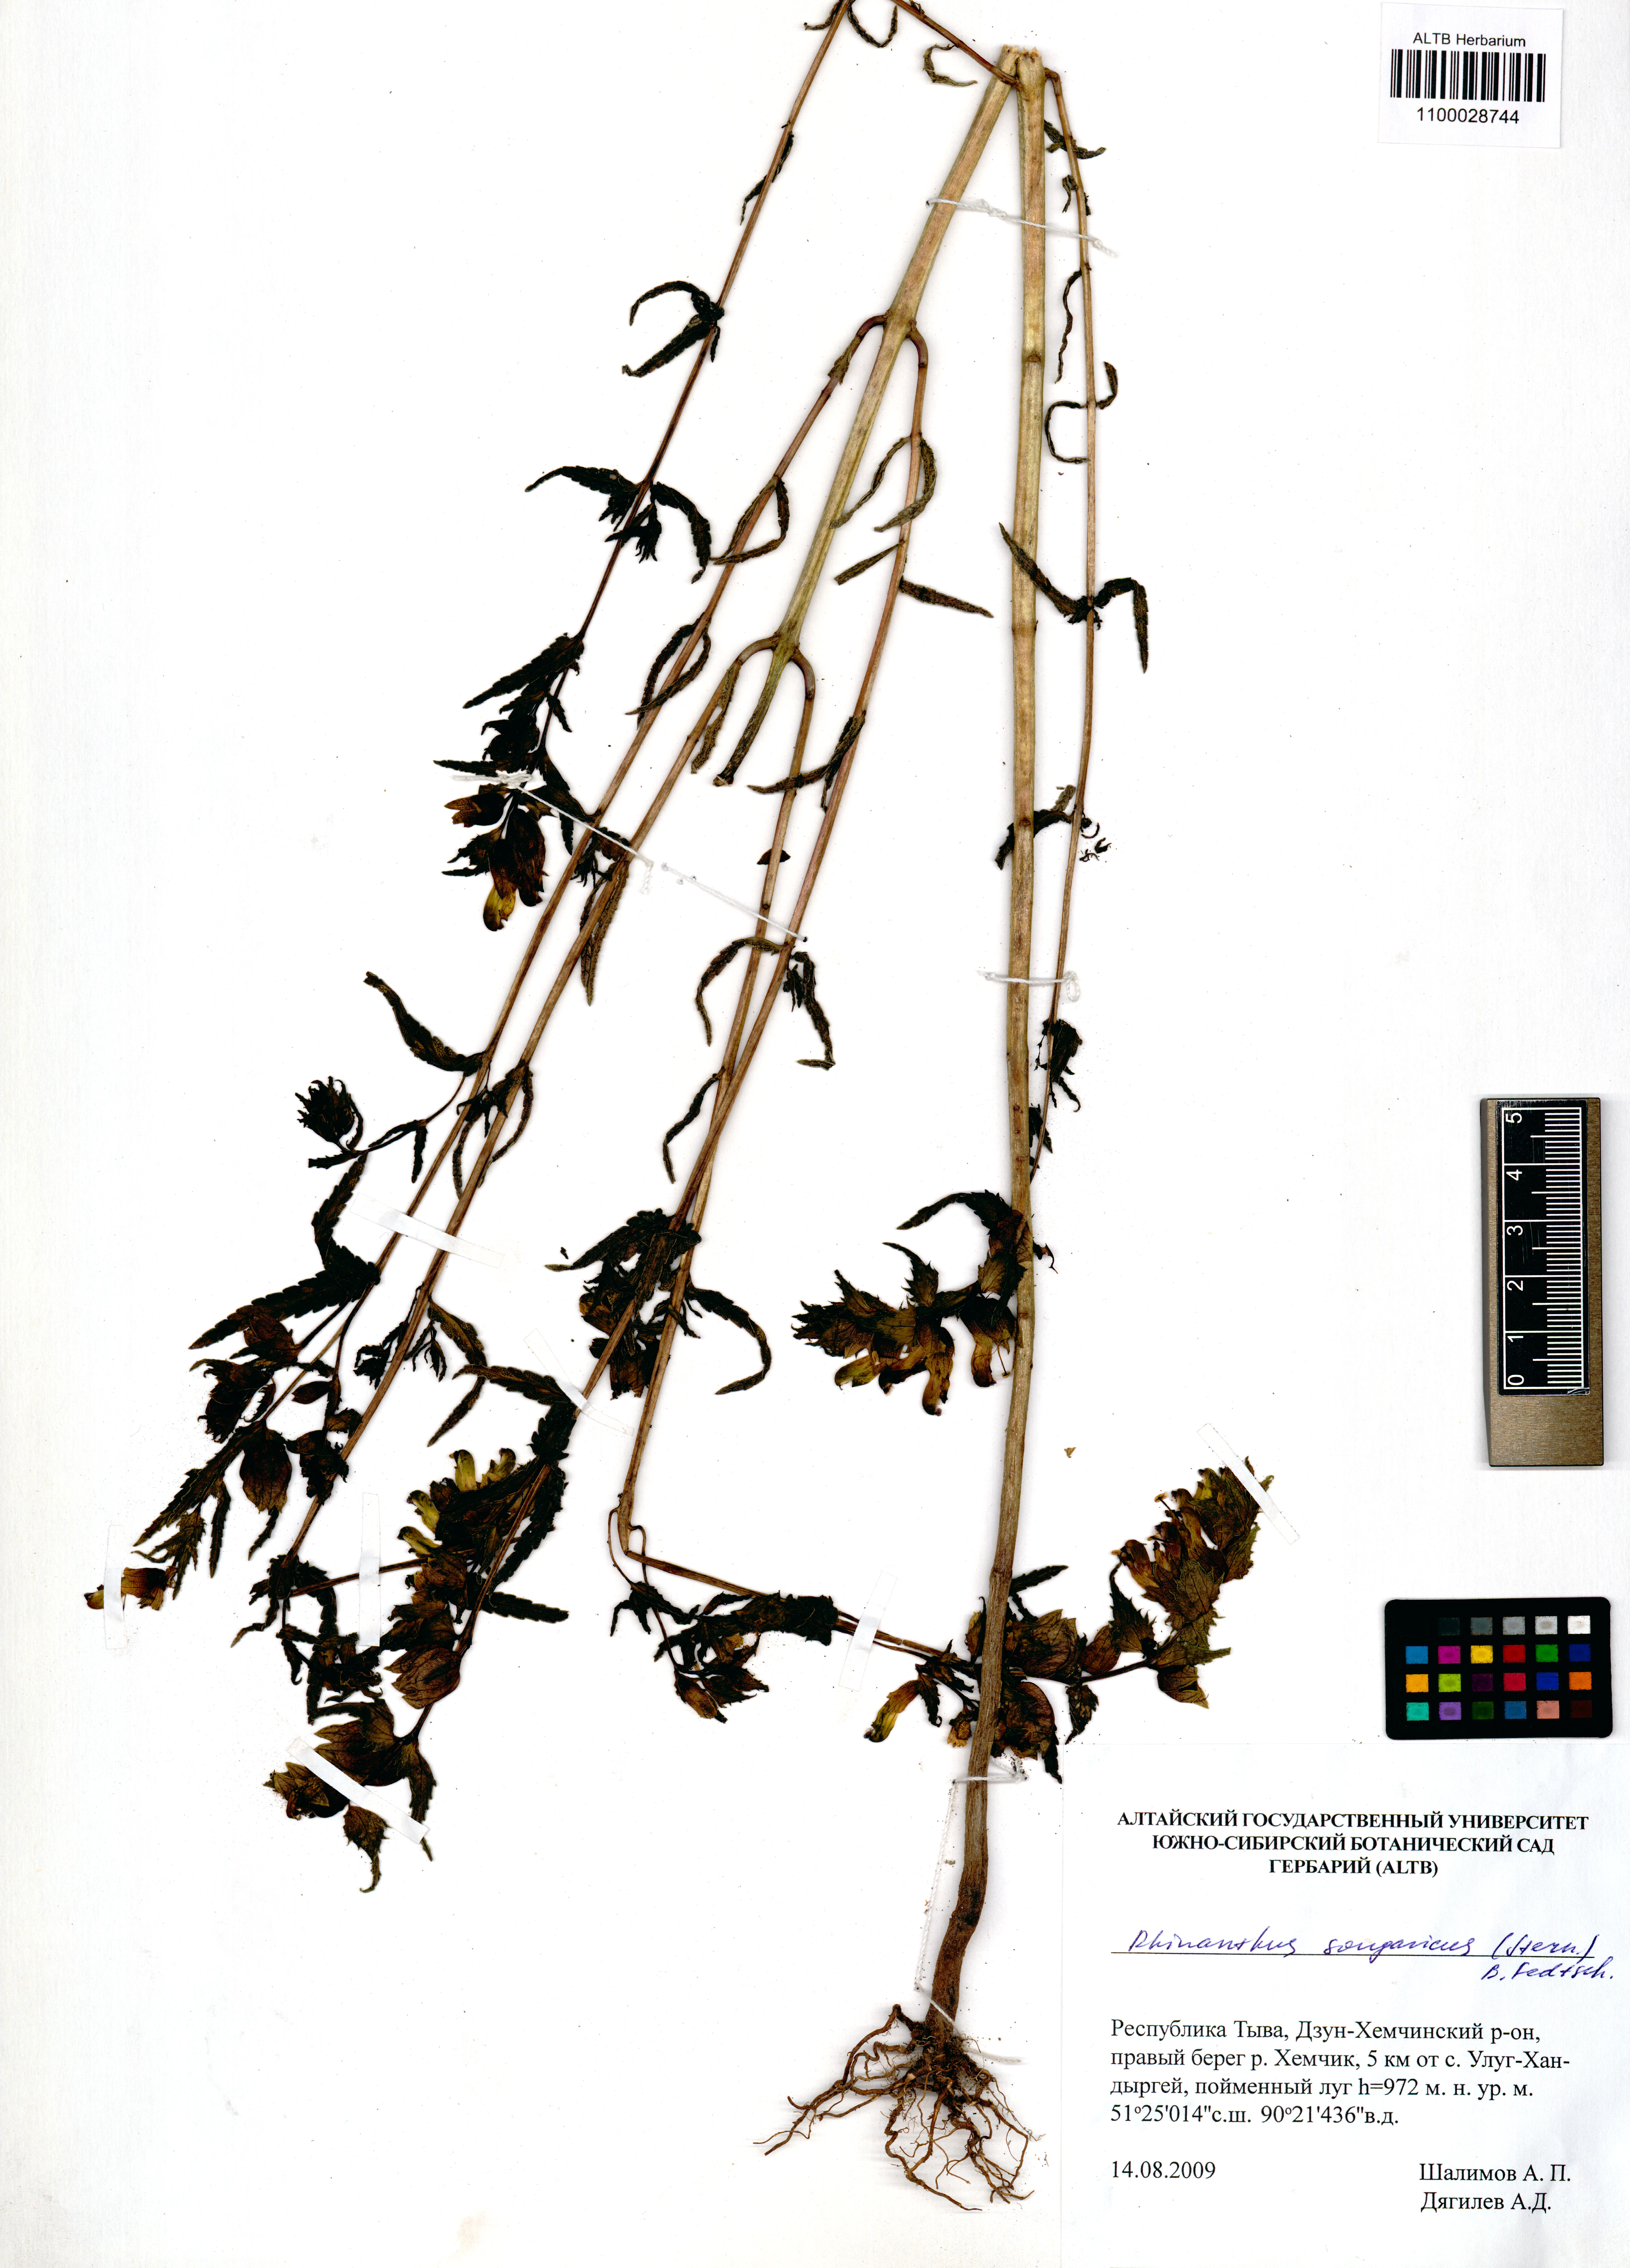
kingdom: Plantae
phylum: Tracheophyta
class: Magnoliopsida
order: Lamiales
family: Orobanchaceae
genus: Rhinanthus
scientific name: Rhinanthus songaricus
